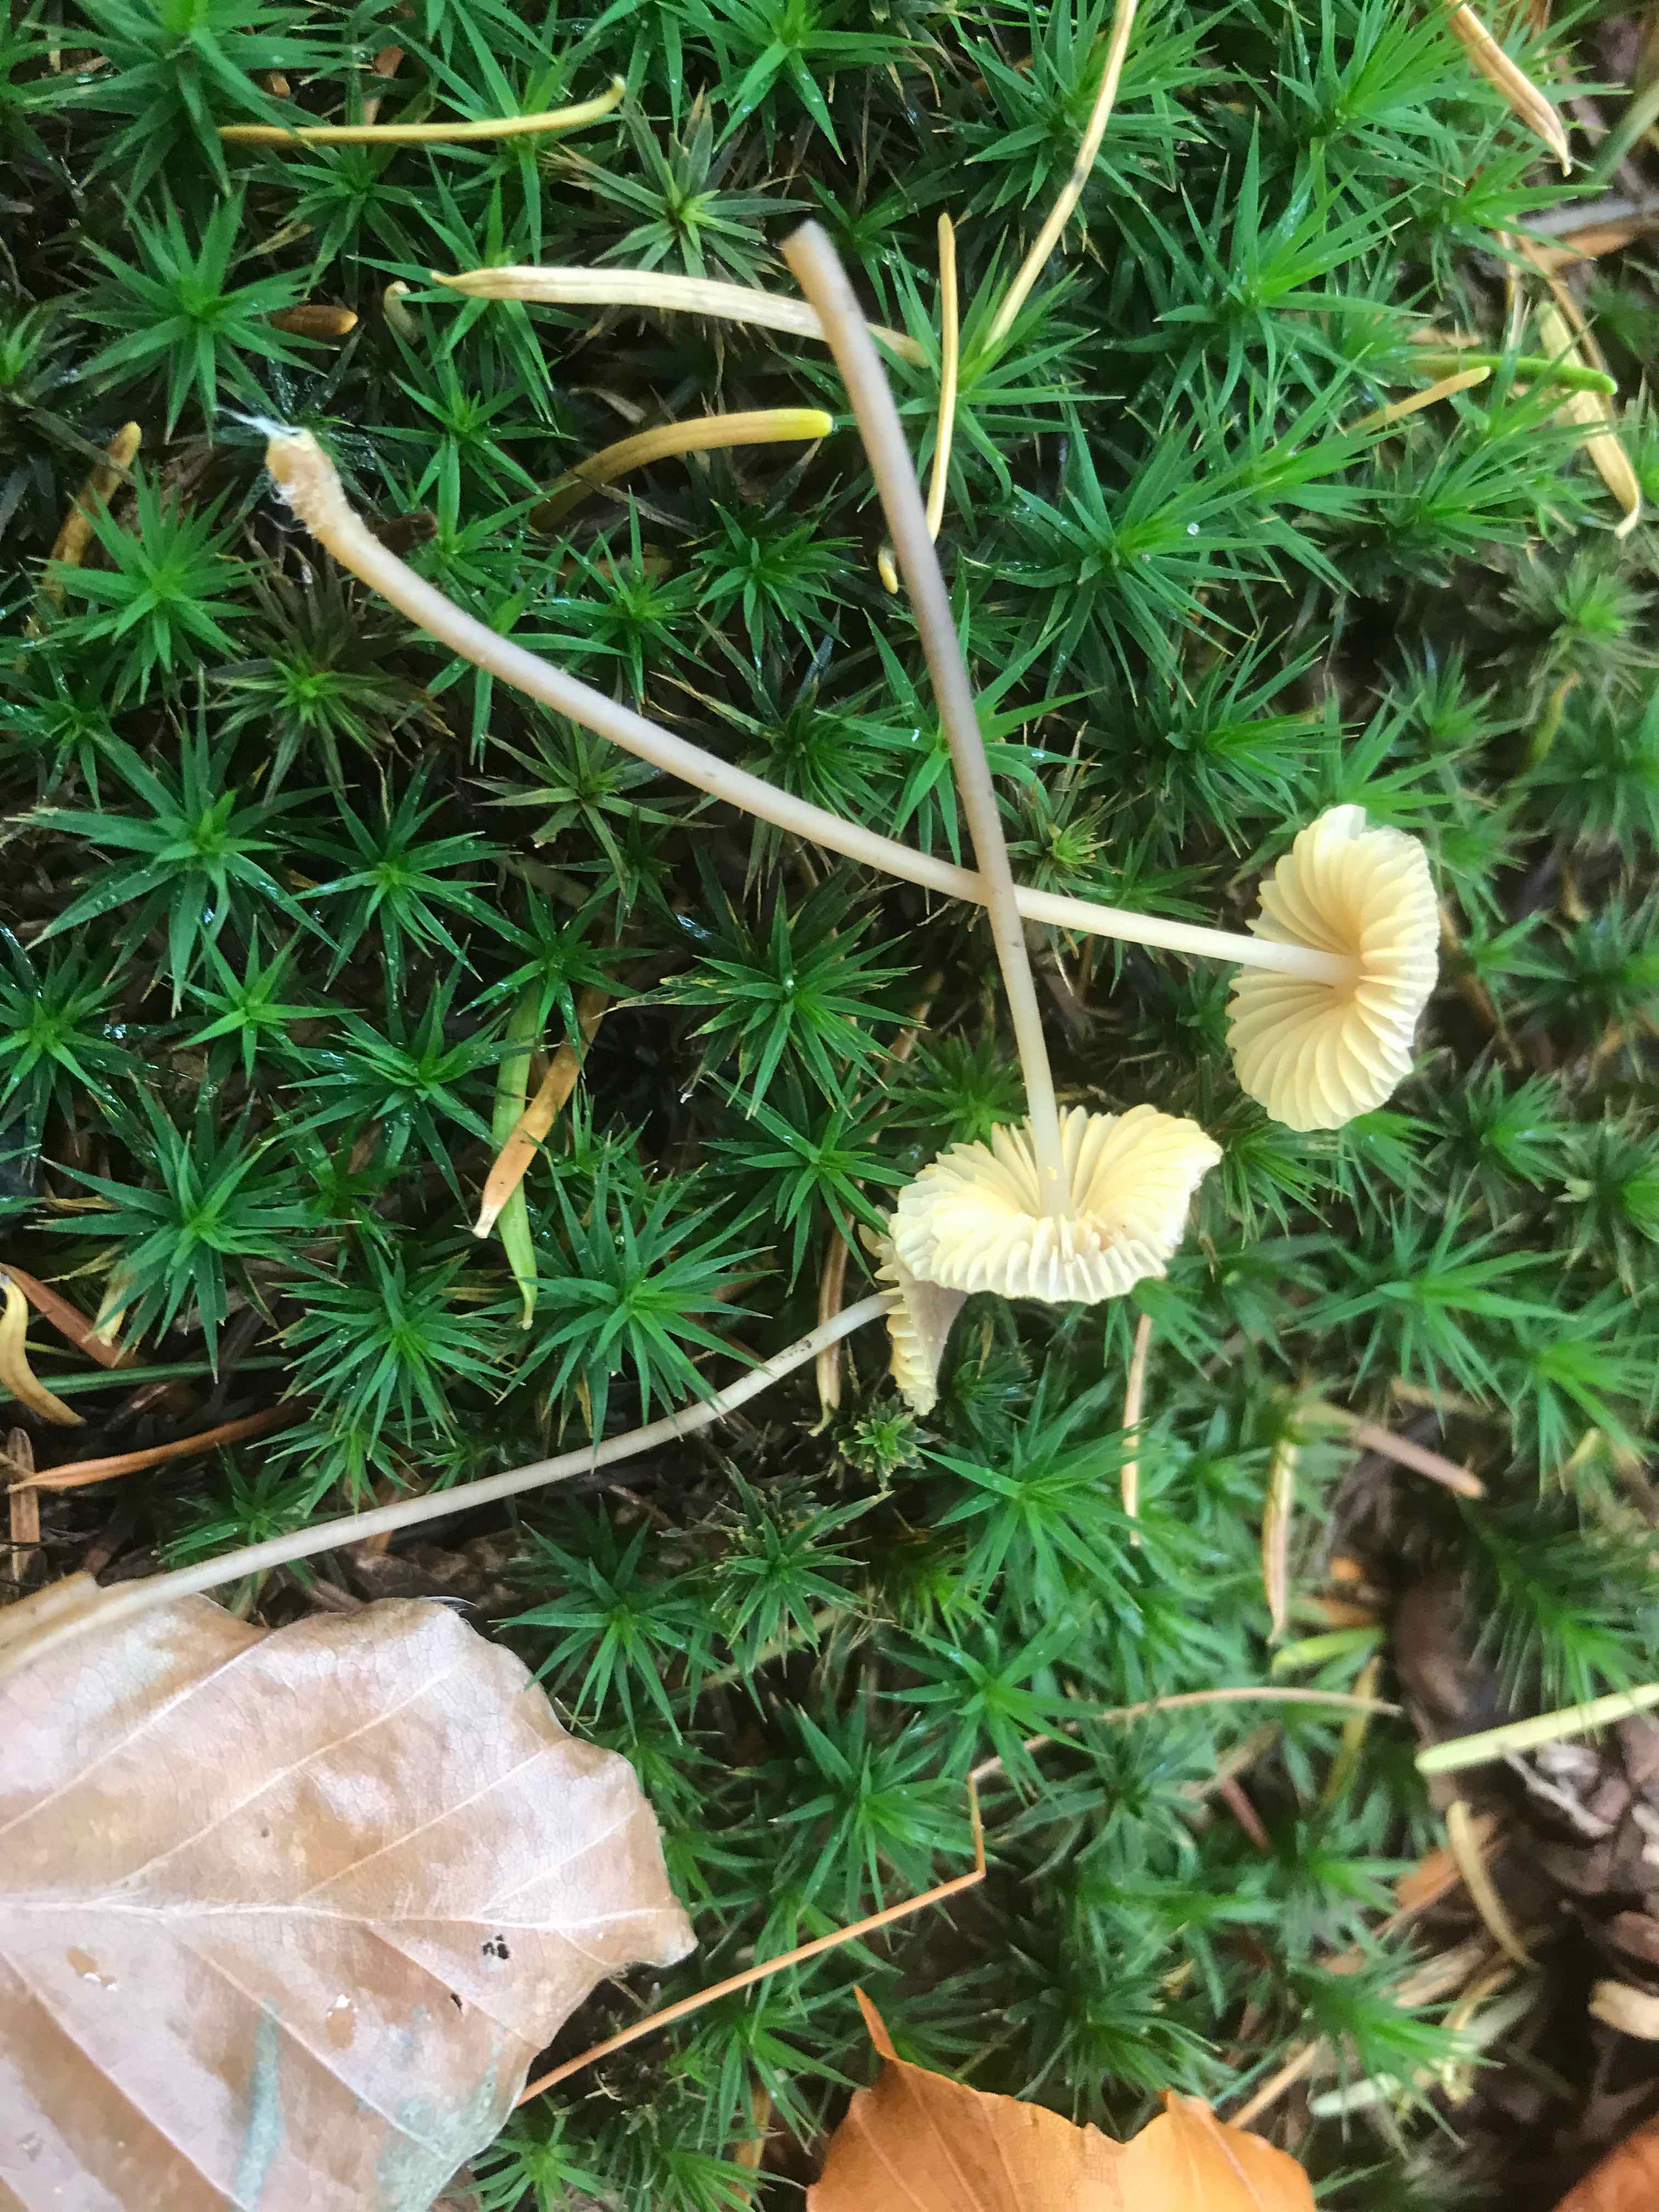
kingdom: Fungi
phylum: Basidiomycota
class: Agaricomycetes
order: Agaricales
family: Mycenaceae
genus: Mycena
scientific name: Mycena aurantiomarginata
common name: orangeægget huesvamp
